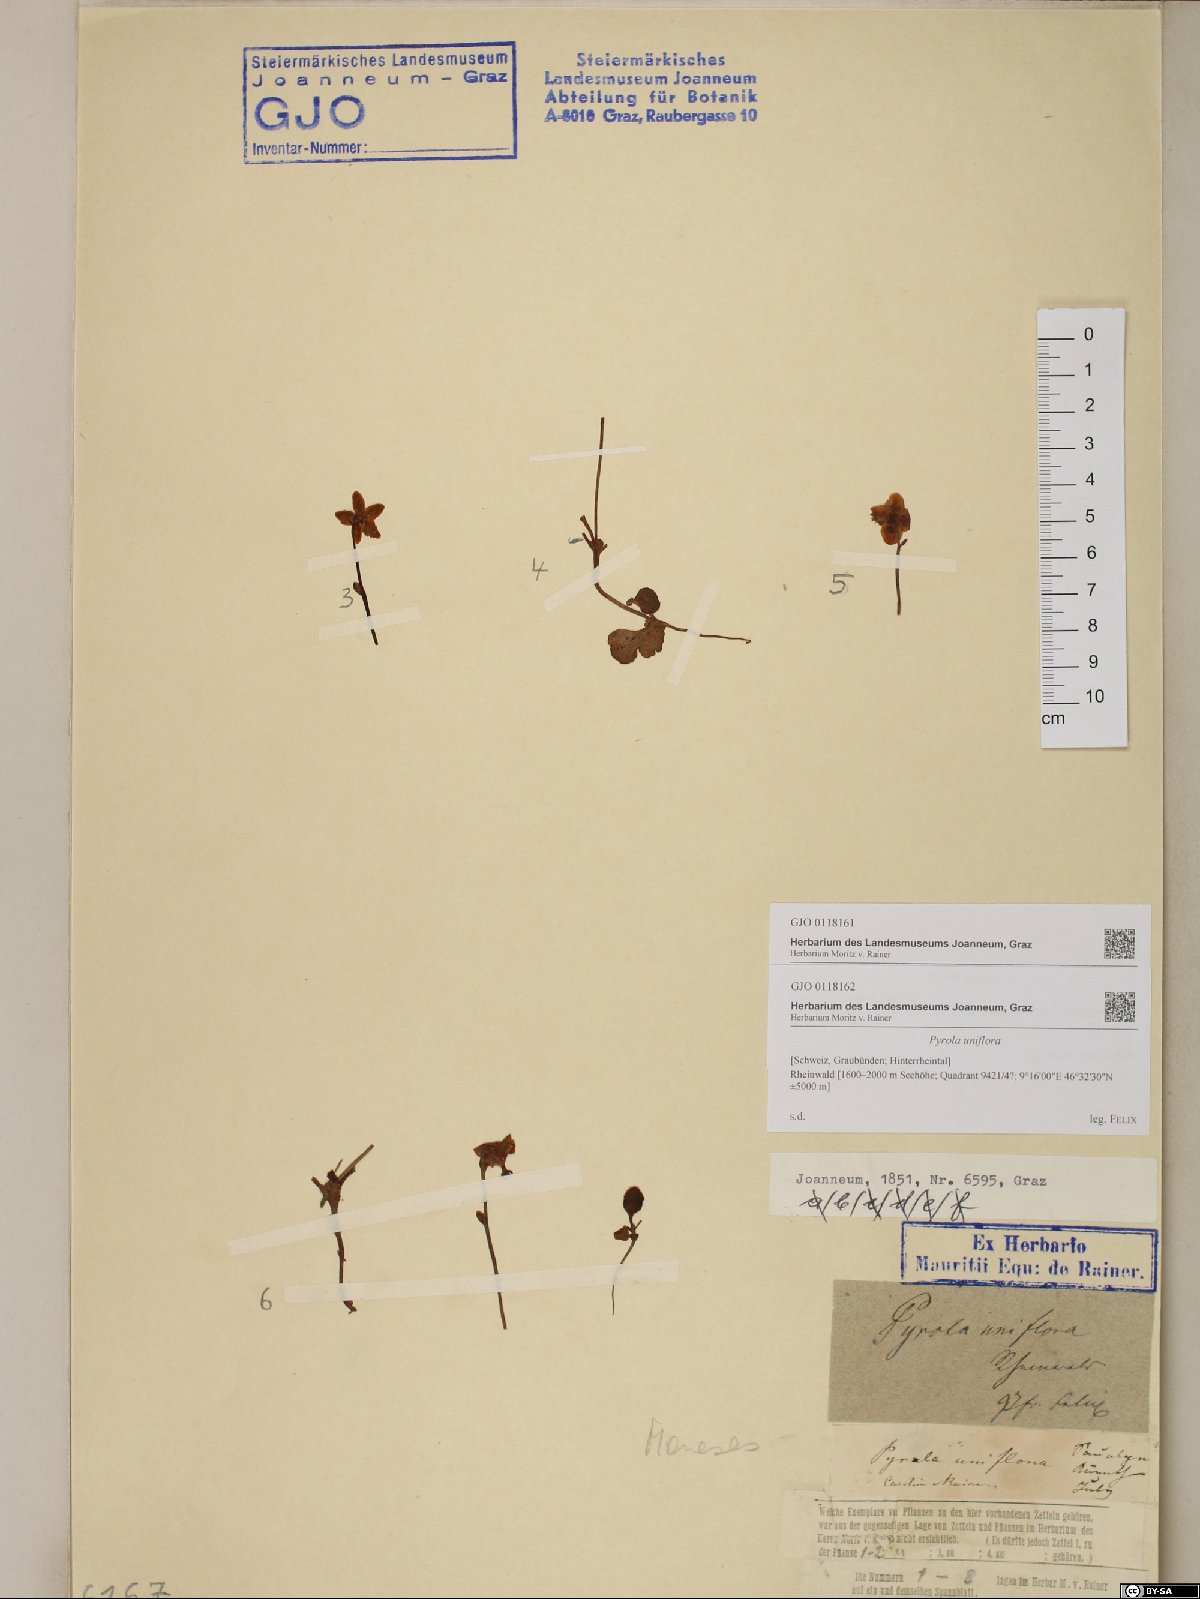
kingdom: Plantae
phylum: Tracheophyta
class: Magnoliopsida
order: Ericales
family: Ericaceae
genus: Moneses
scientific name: Moneses uniflora
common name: One-flowered wintergreen
